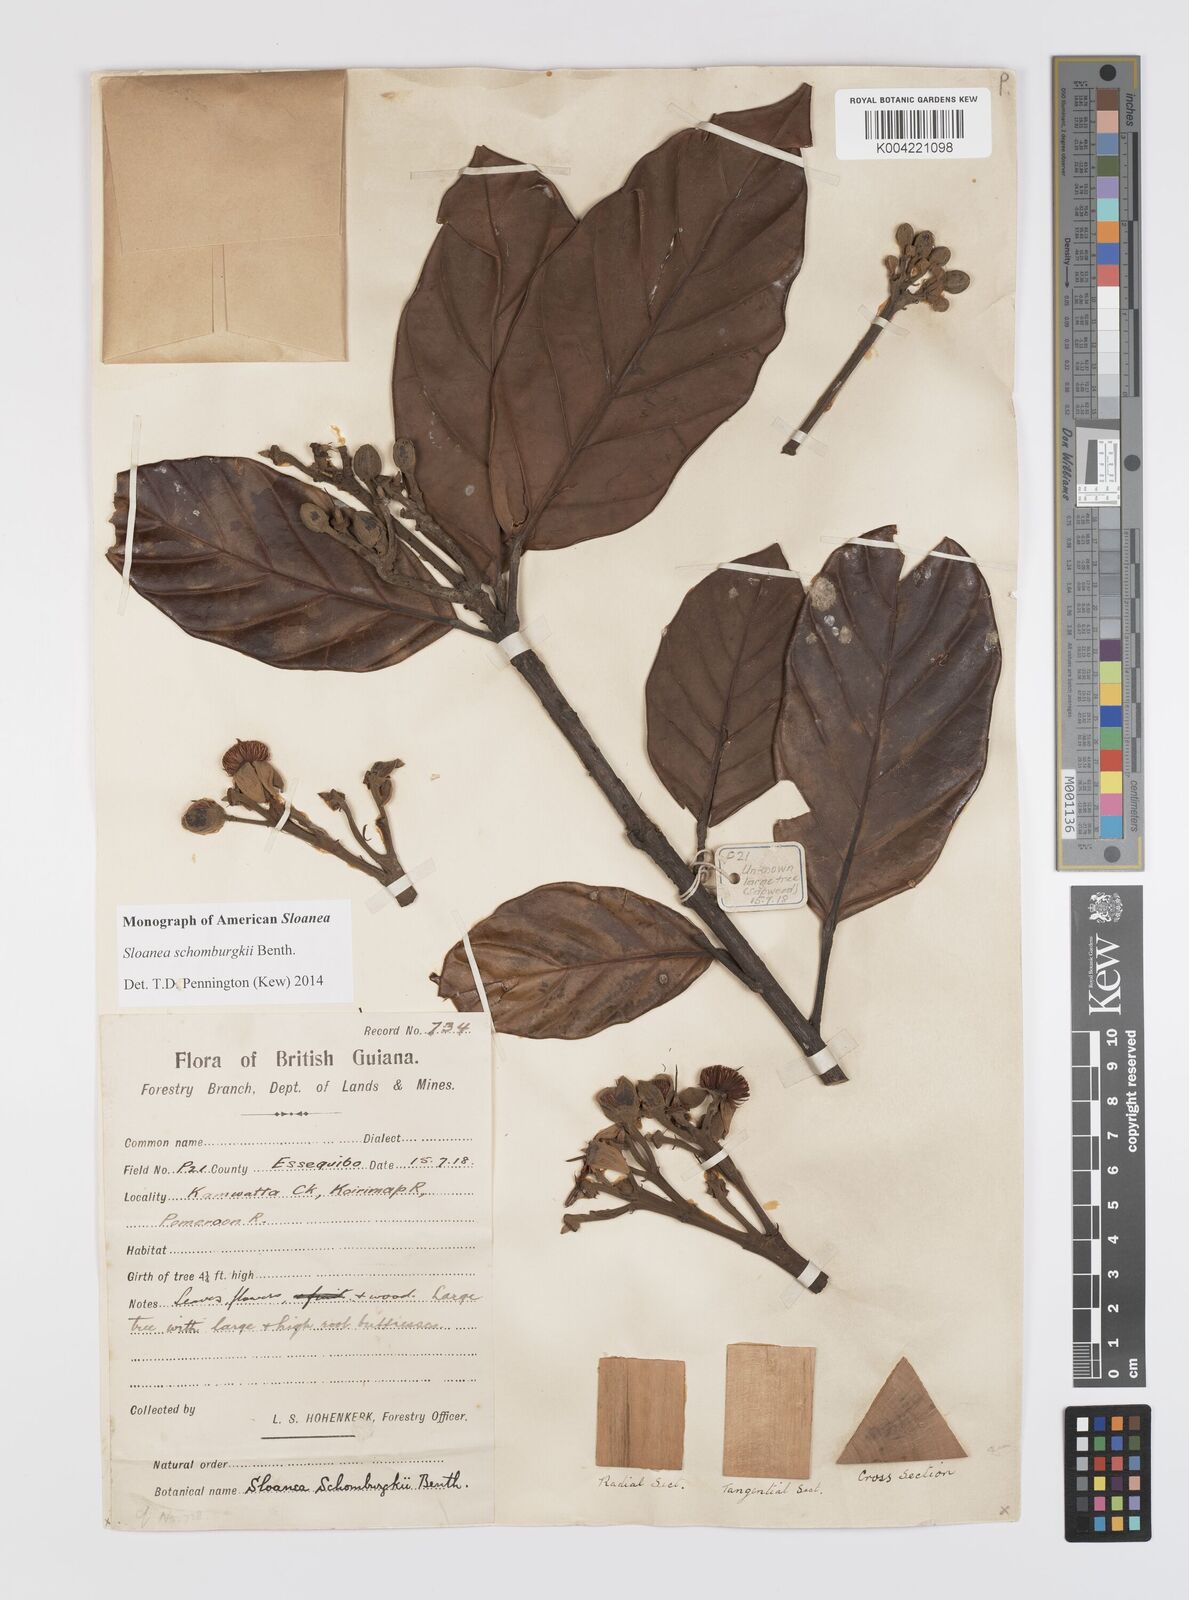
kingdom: Plantae
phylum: Tracheophyta
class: Magnoliopsida
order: Oxalidales
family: Elaeocarpaceae
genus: Sloanea
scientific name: Sloanea schomburgkii
